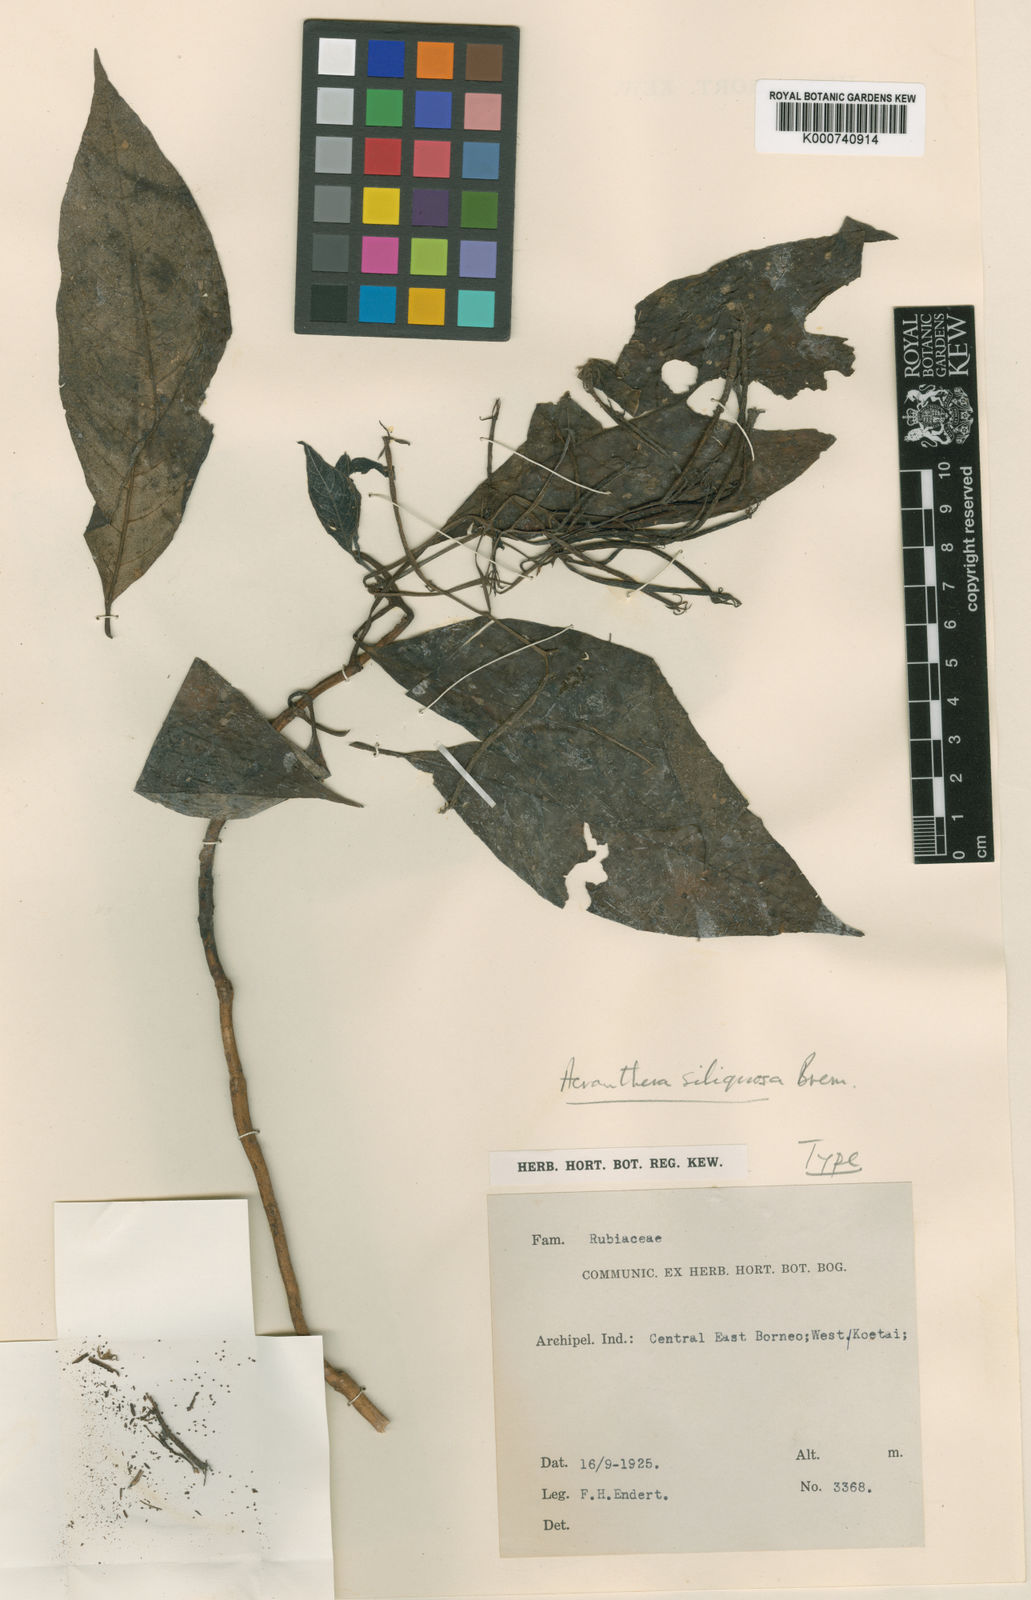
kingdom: Plantae
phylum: Tracheophyta
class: Magnoliopsida
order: Gentianales
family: Rubiaceae
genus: Acranthera
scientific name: Acranthera siliquosa
